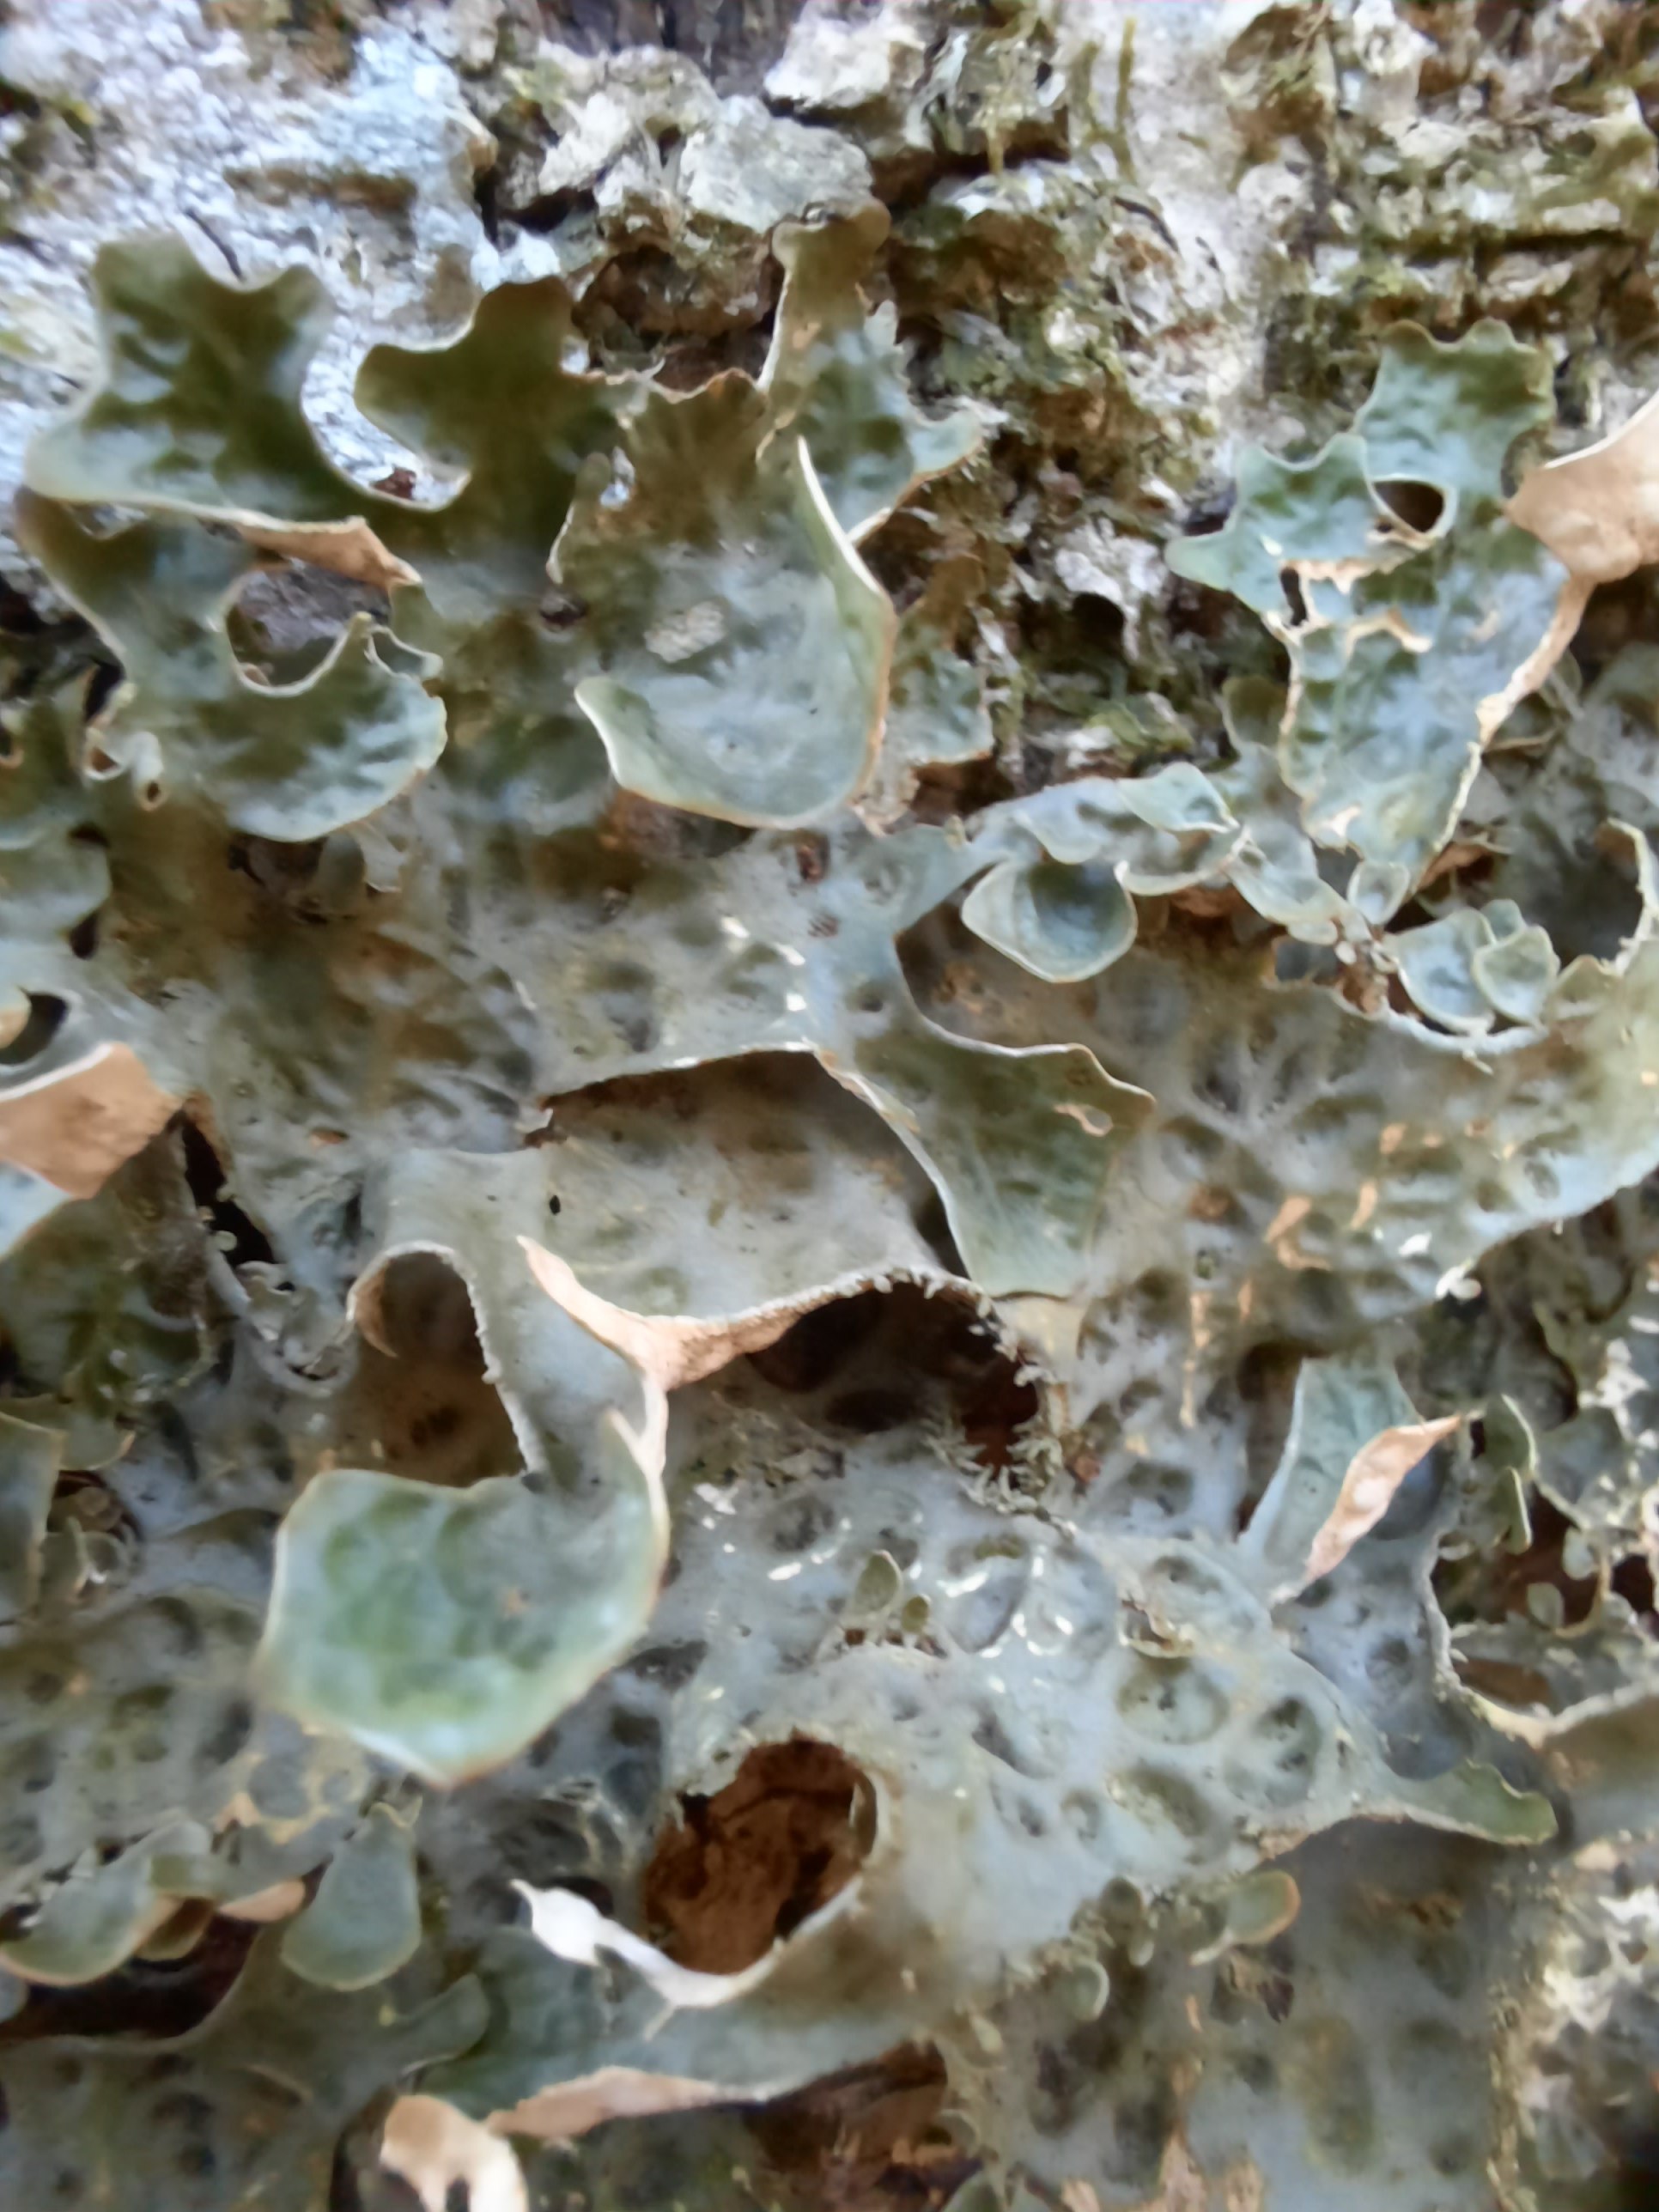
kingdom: Fungi
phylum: Ascomycota
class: Lecanoromycetes
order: Peltigerales
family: Lobariaceae
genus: Lobaria
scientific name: Lobaria pulmonaria
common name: almindelig lungelav
